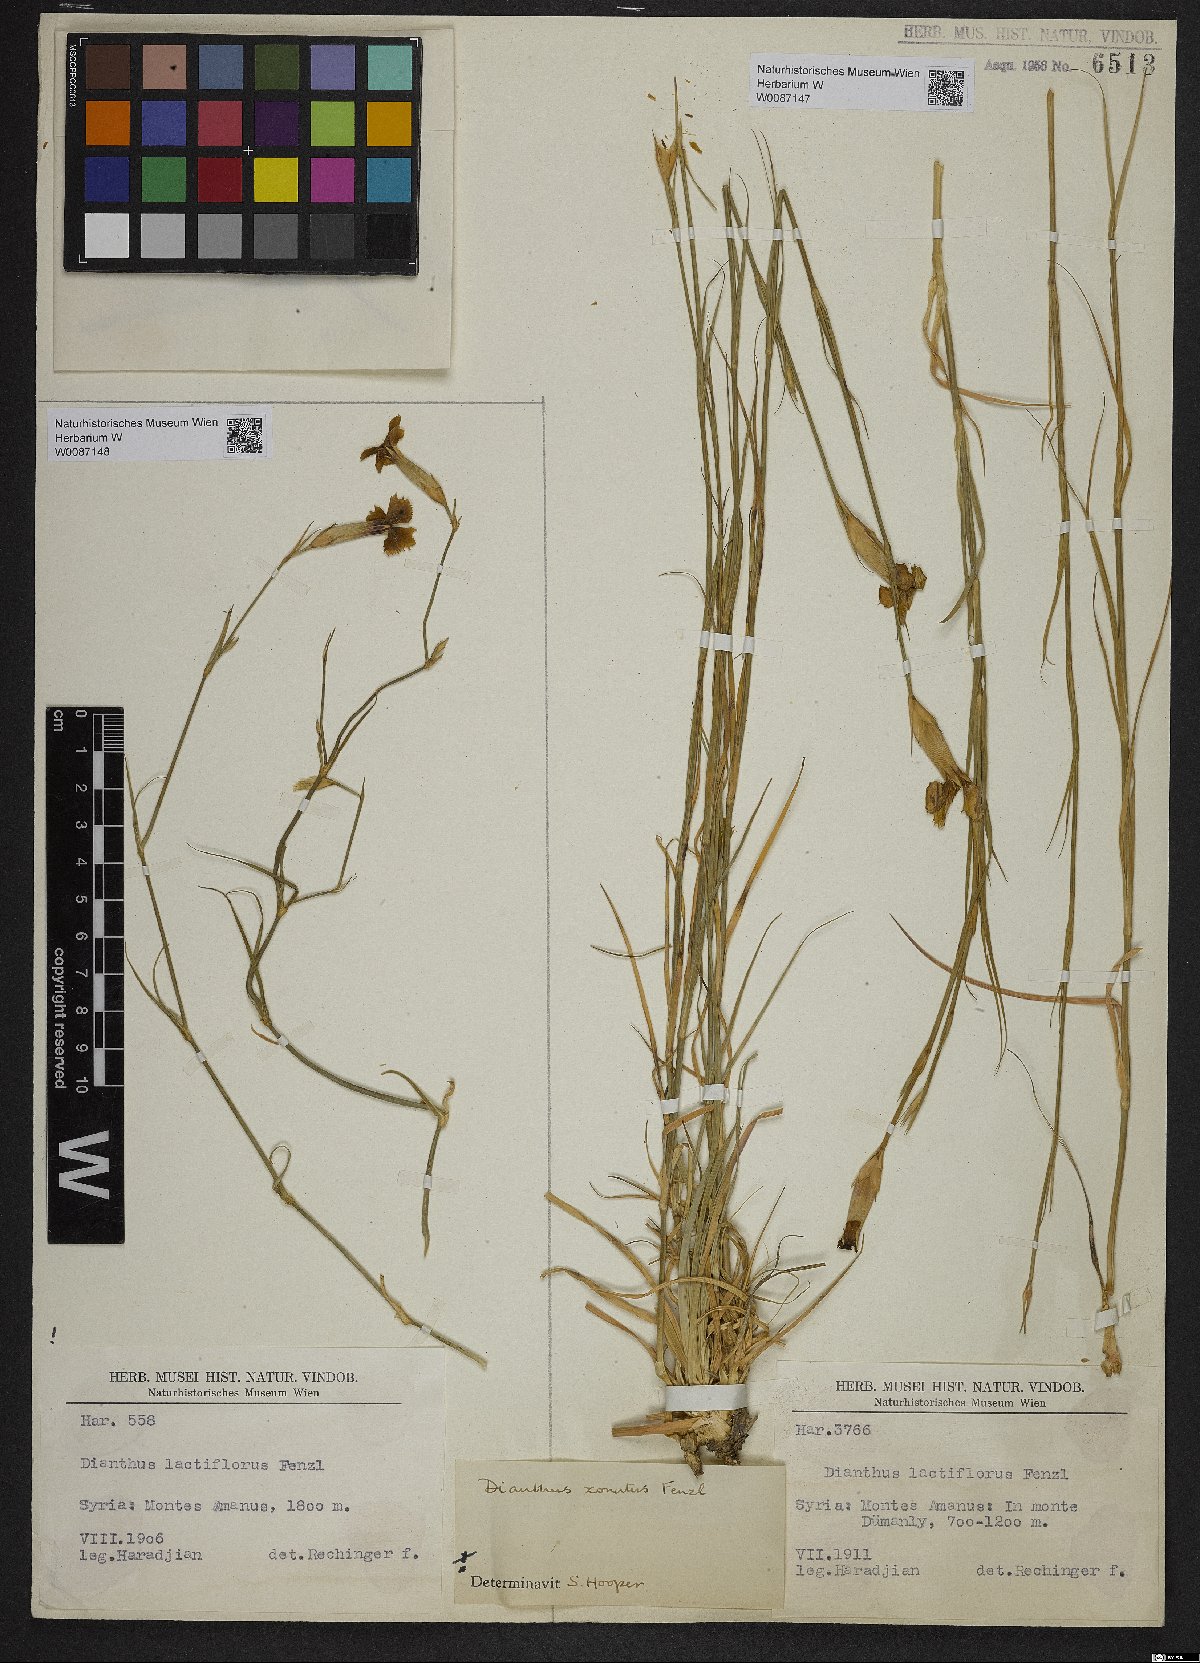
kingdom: Plantae
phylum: Tracheophyta
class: Magnoliopsida
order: Caryophyllales
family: Caryophyllaceae
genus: Dianthus
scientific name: Dianthus zonatus
